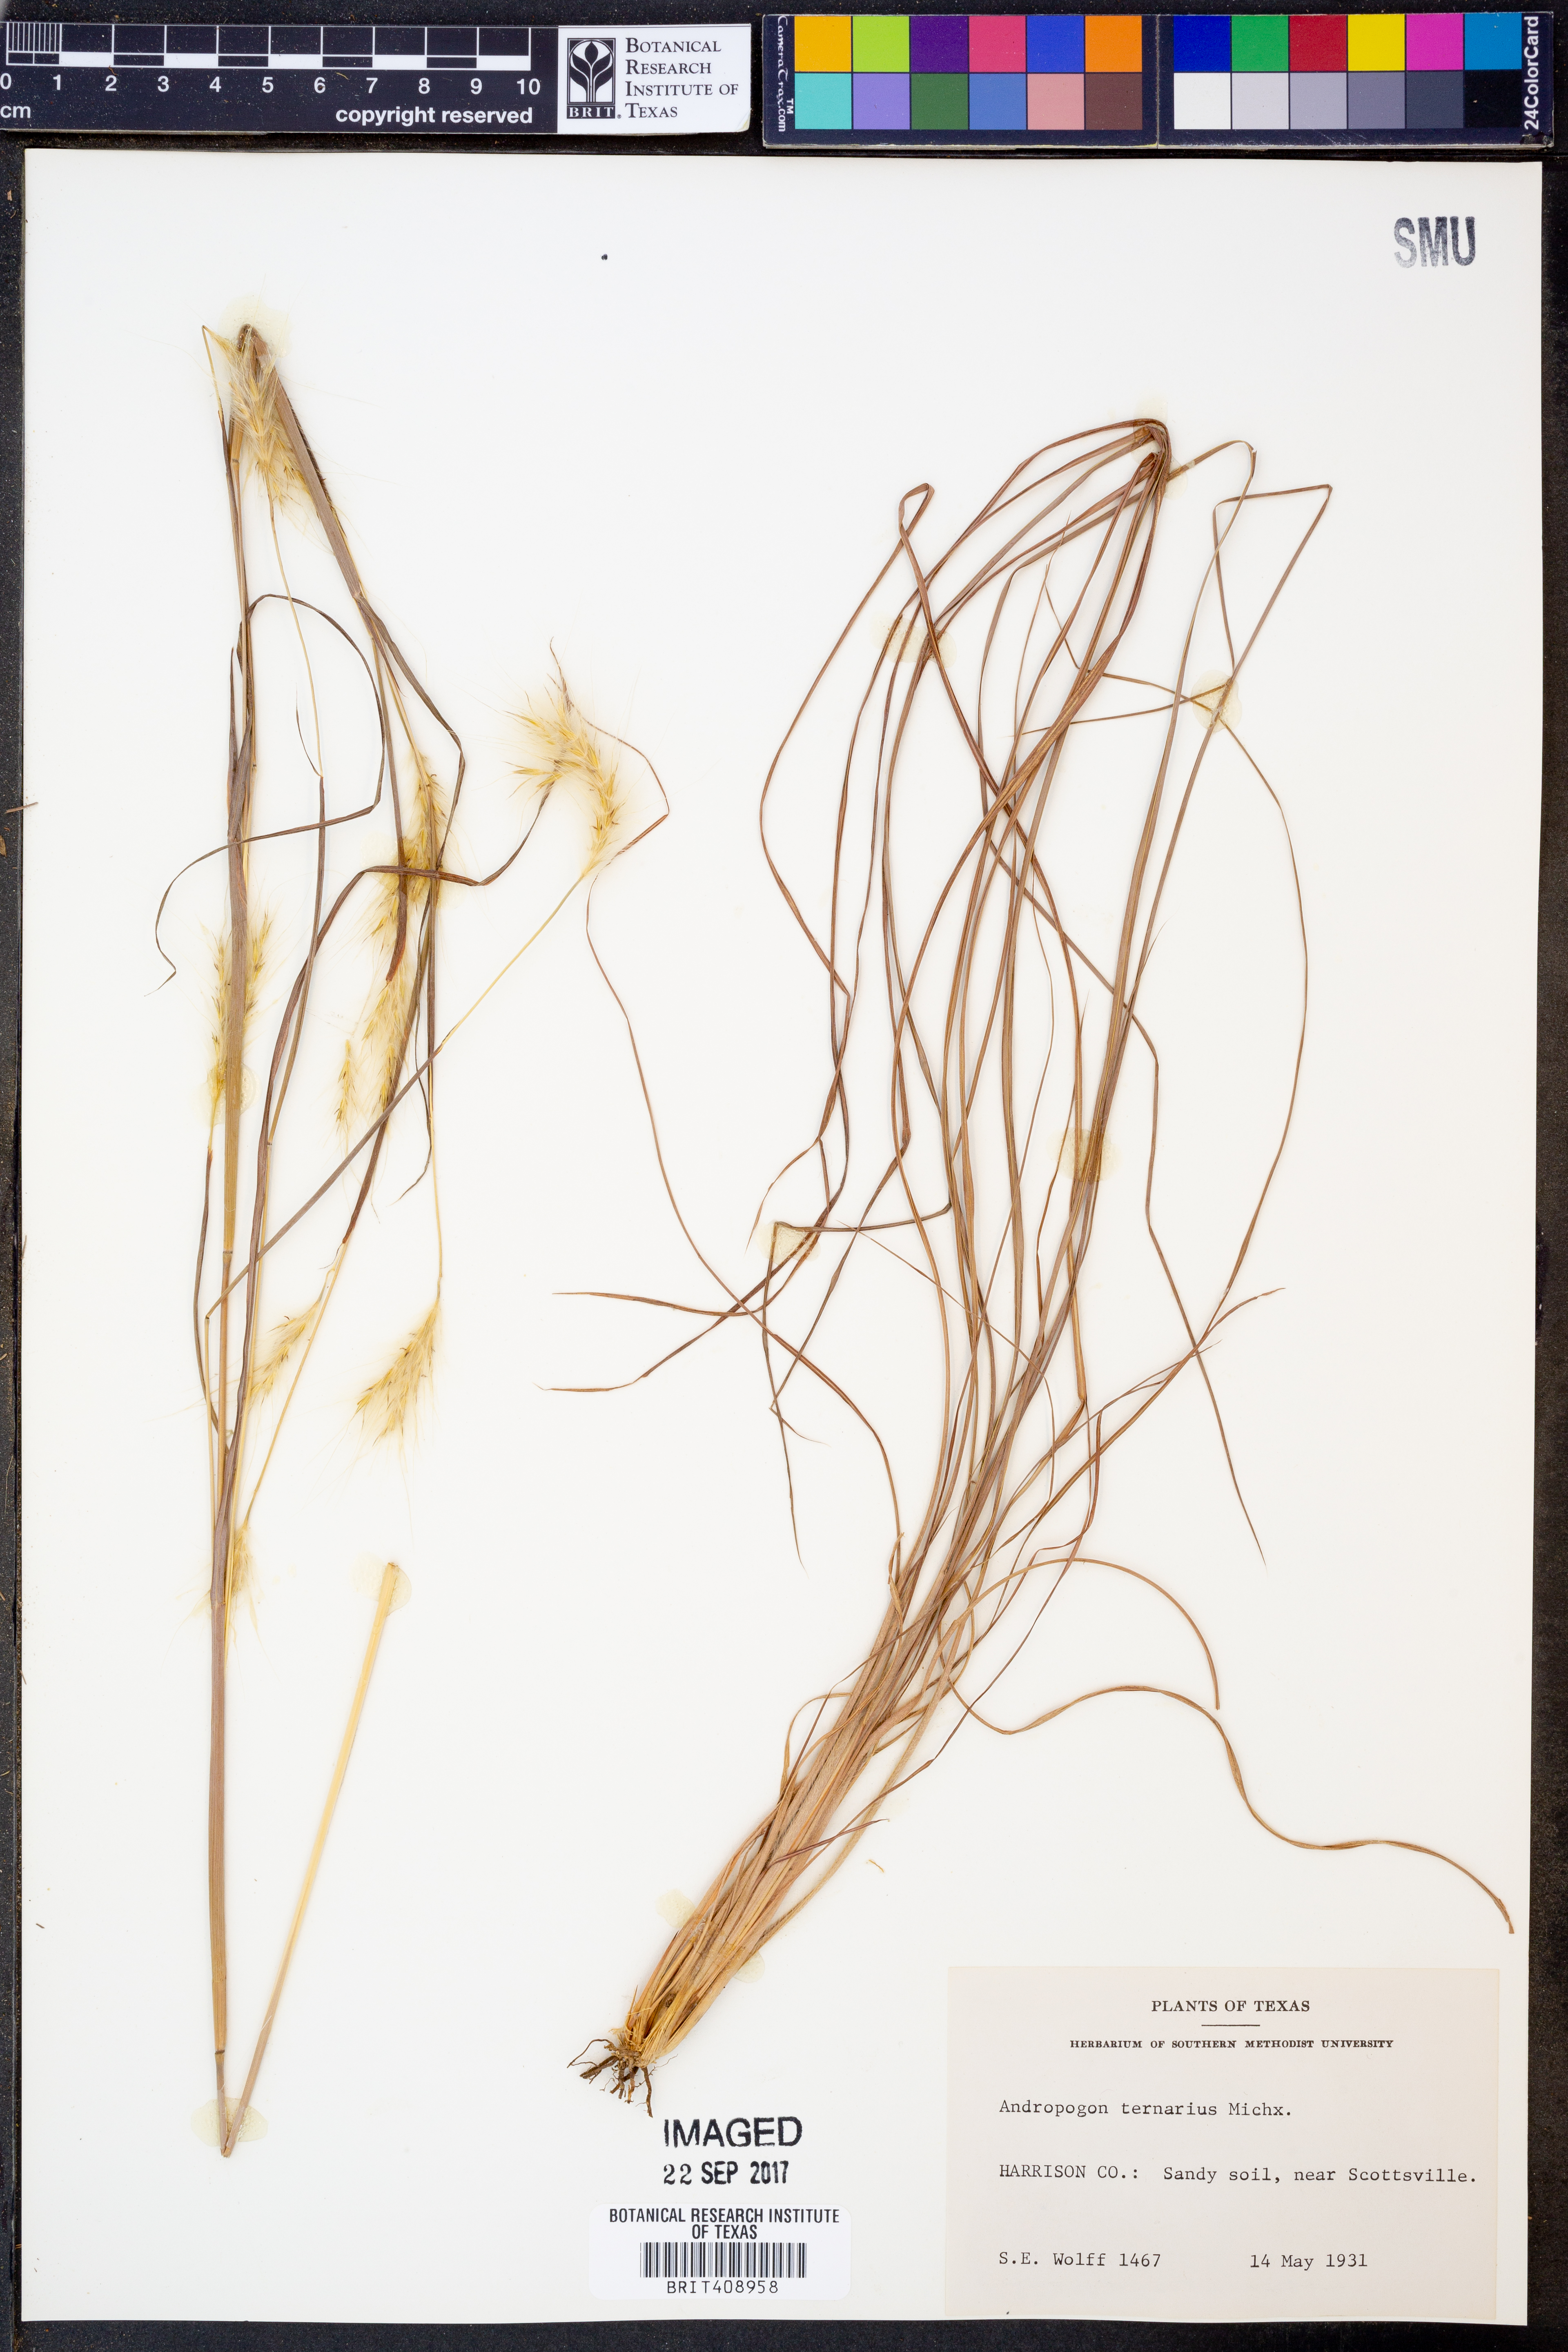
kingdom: Plantae
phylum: Tracheophyta
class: Liliopsida
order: Poales
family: Poaceae
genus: Andropogon
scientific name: Andropogon ternarius
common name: Split bluestem
